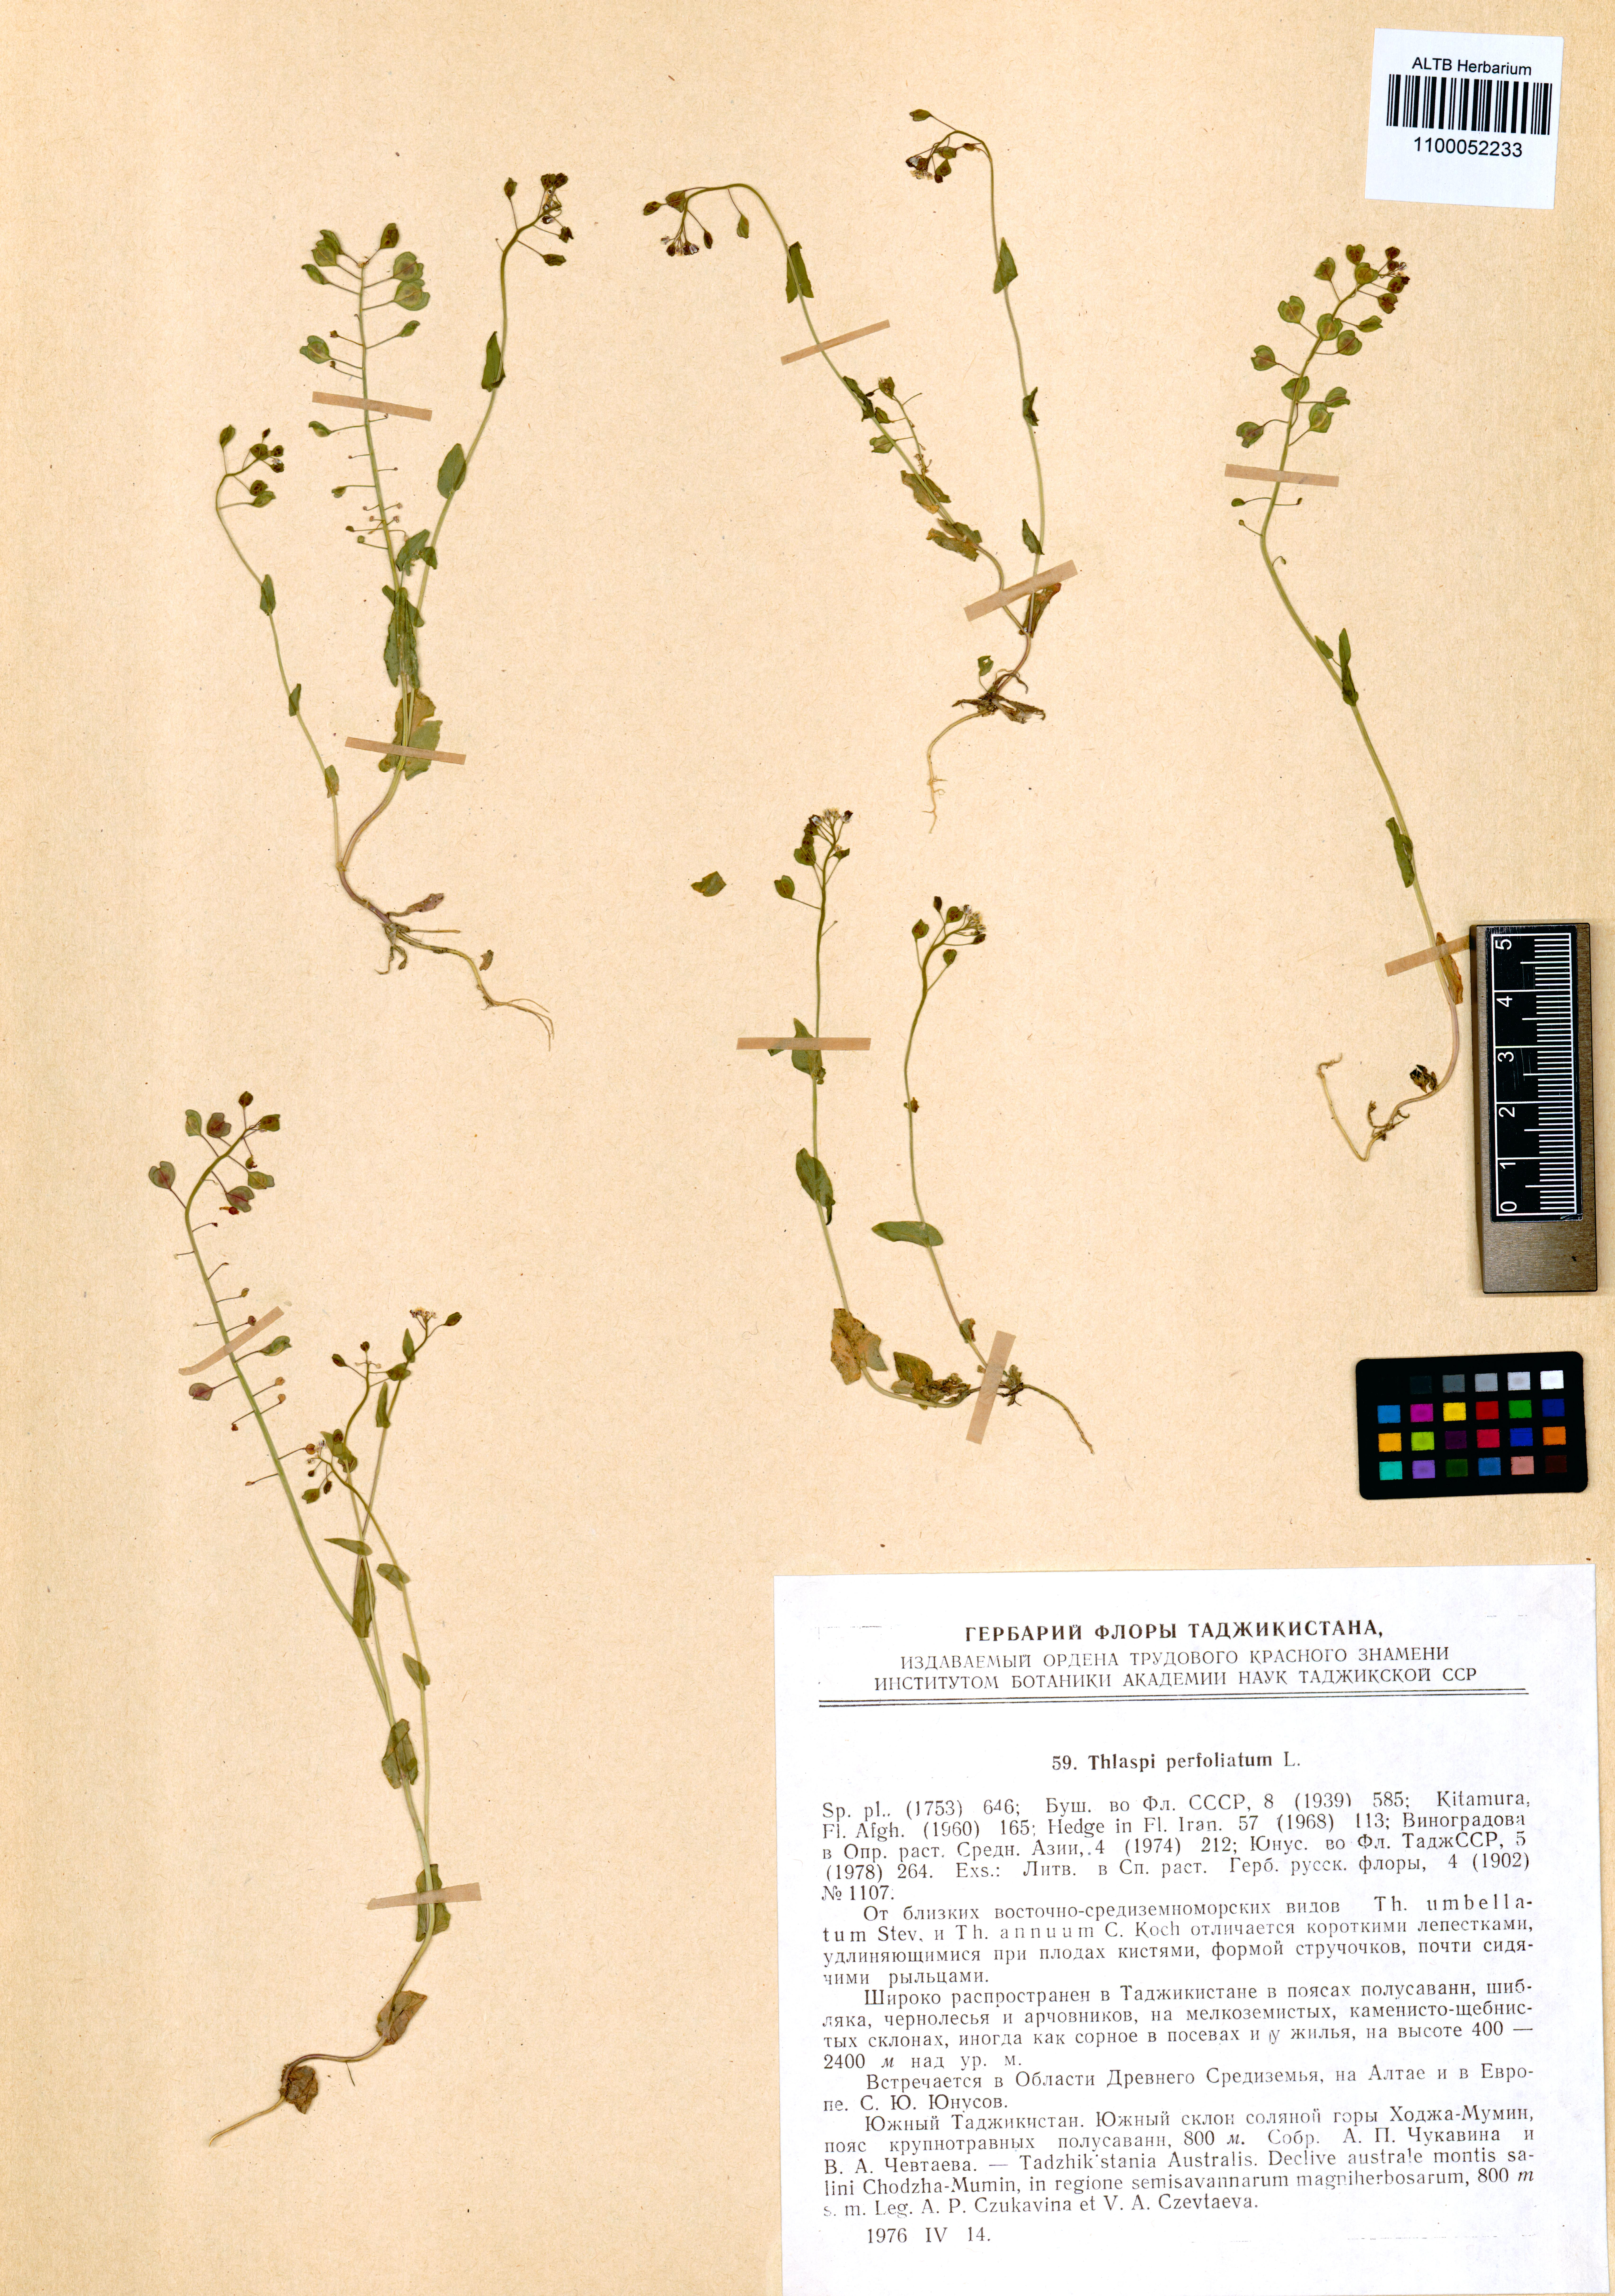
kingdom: Plantae
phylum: Tracheophyta
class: Magnoliopsida
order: Brassicales
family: Brassicaceae
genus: Noccaea
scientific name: Noccaea perfoliata
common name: Perfoliate pennycress
